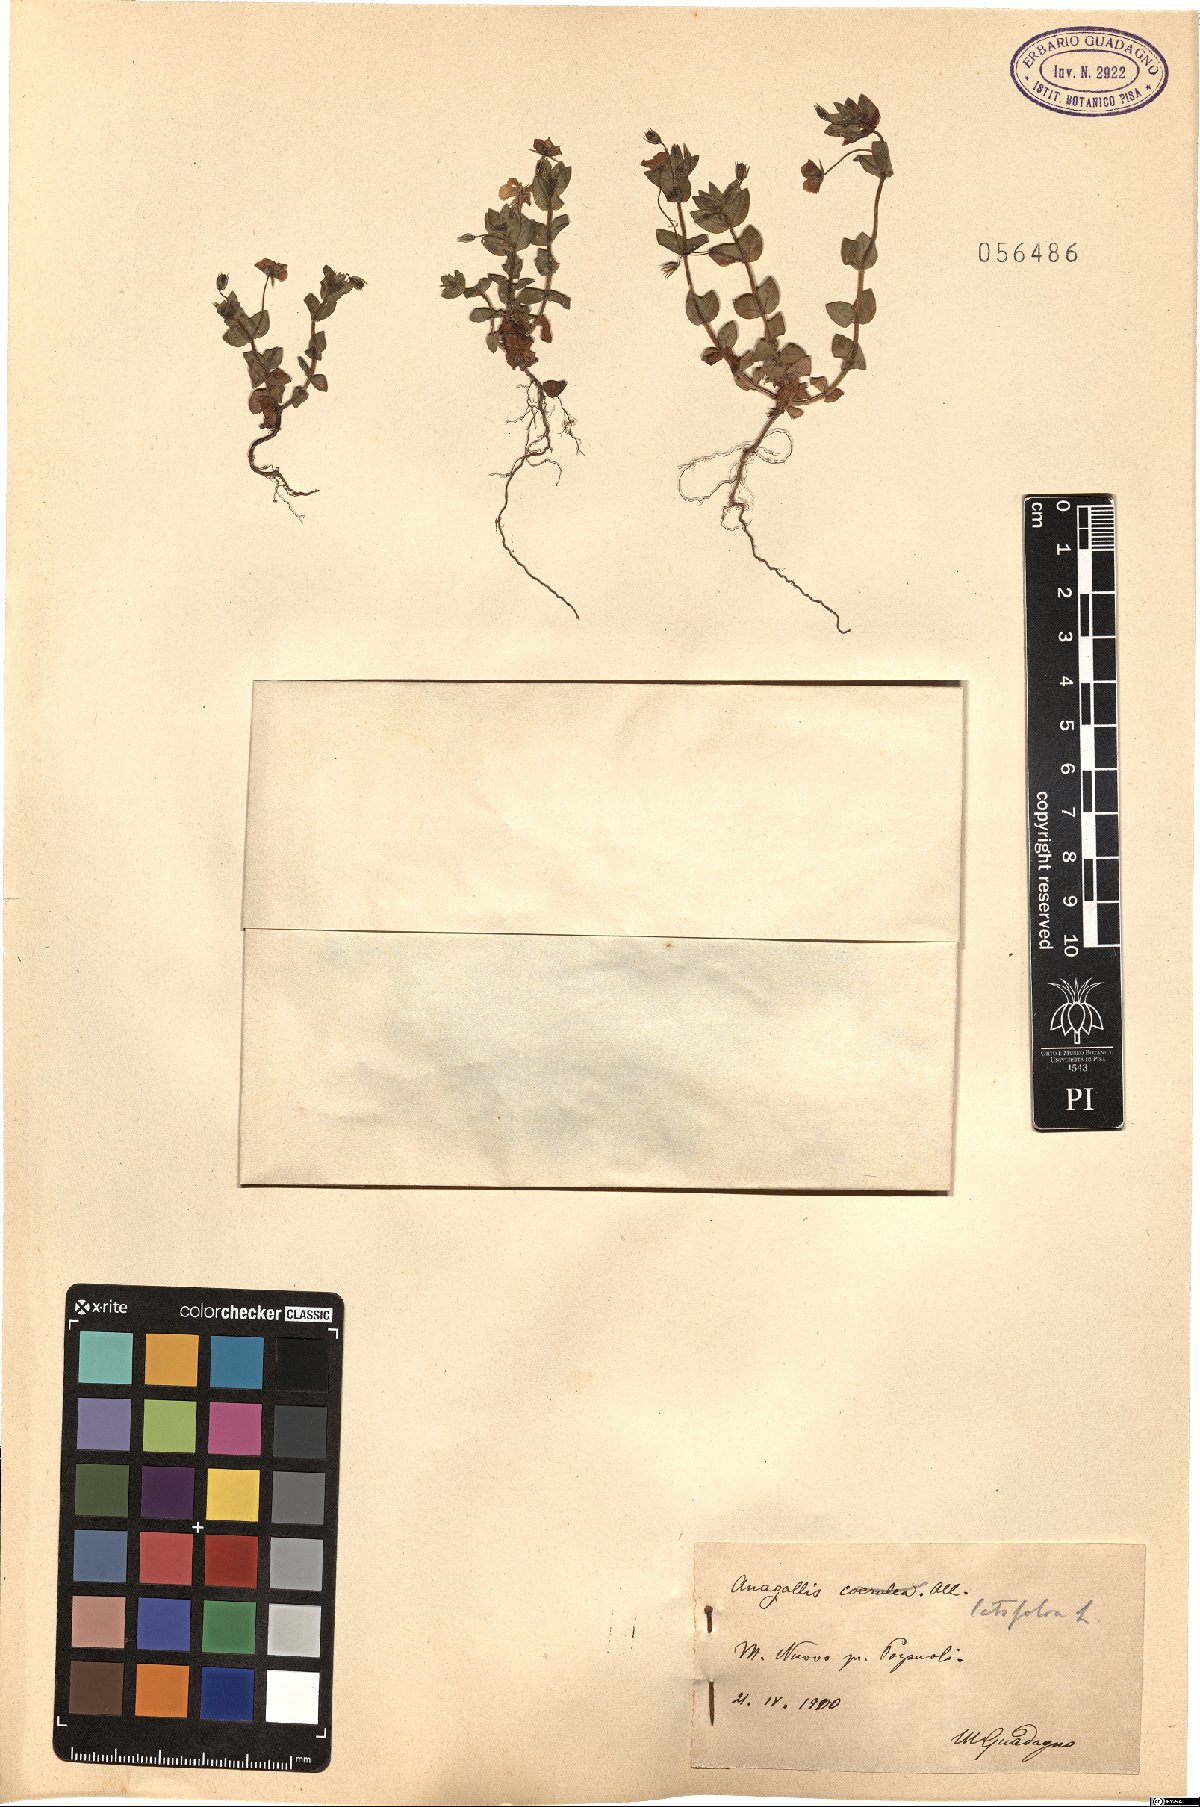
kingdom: Plantae
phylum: Tracheophyta
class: Magnoliopsida
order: Ericales
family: Primulaceae
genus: Lysimachia
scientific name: Lysimachia loeflingii
